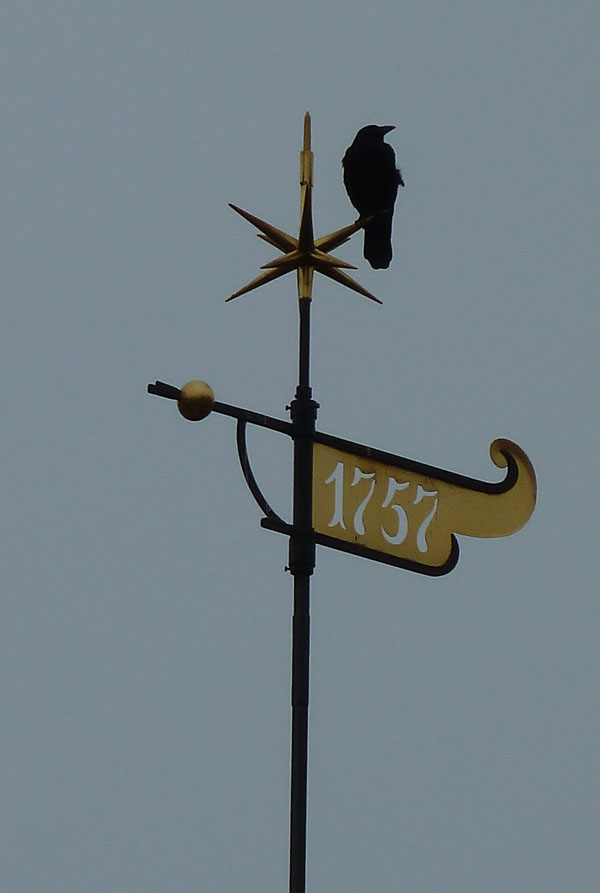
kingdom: Animalia
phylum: Chordata
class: Aves
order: Passeriformes
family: Corvidae
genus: Corvus
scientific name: Corvus corone
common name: Carrion crow
